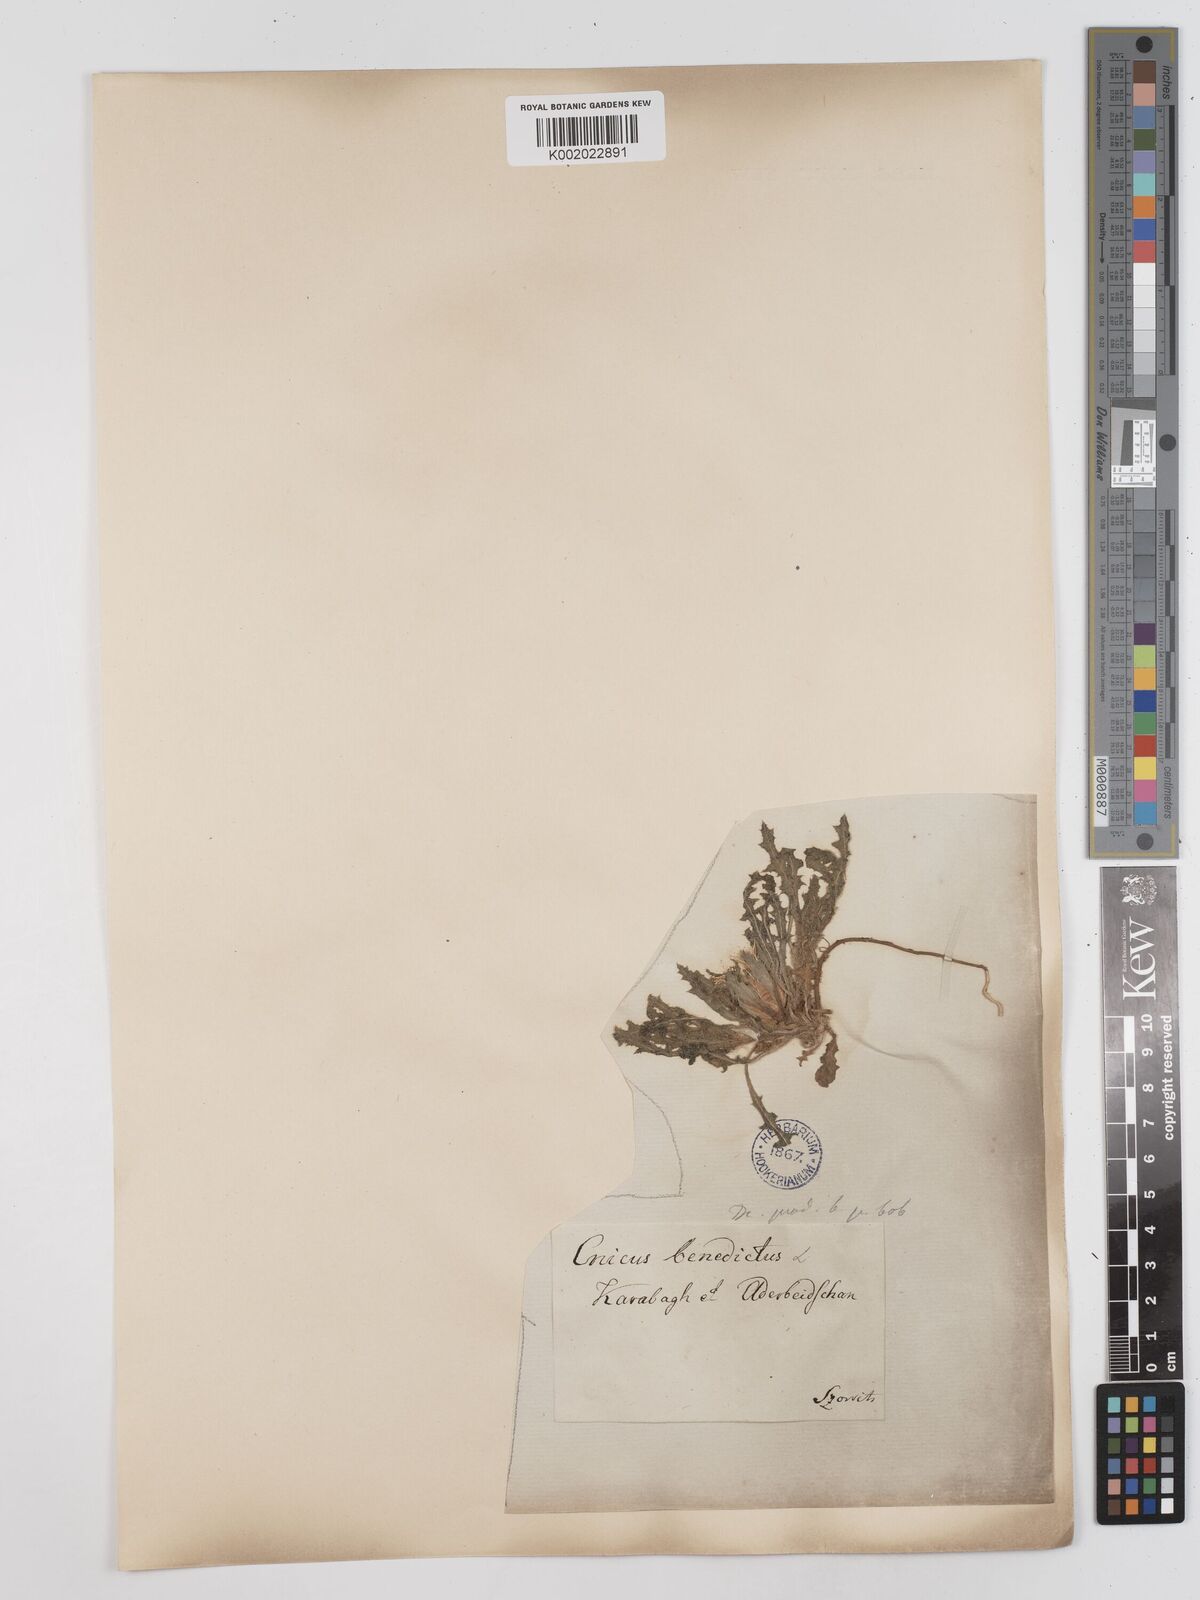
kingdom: Plantae
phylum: Tracheophyta
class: Magnoliopsida
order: Asterales
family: Asteraceae
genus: Centaurea
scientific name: Centaurea benedicta
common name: Blessed thistle
